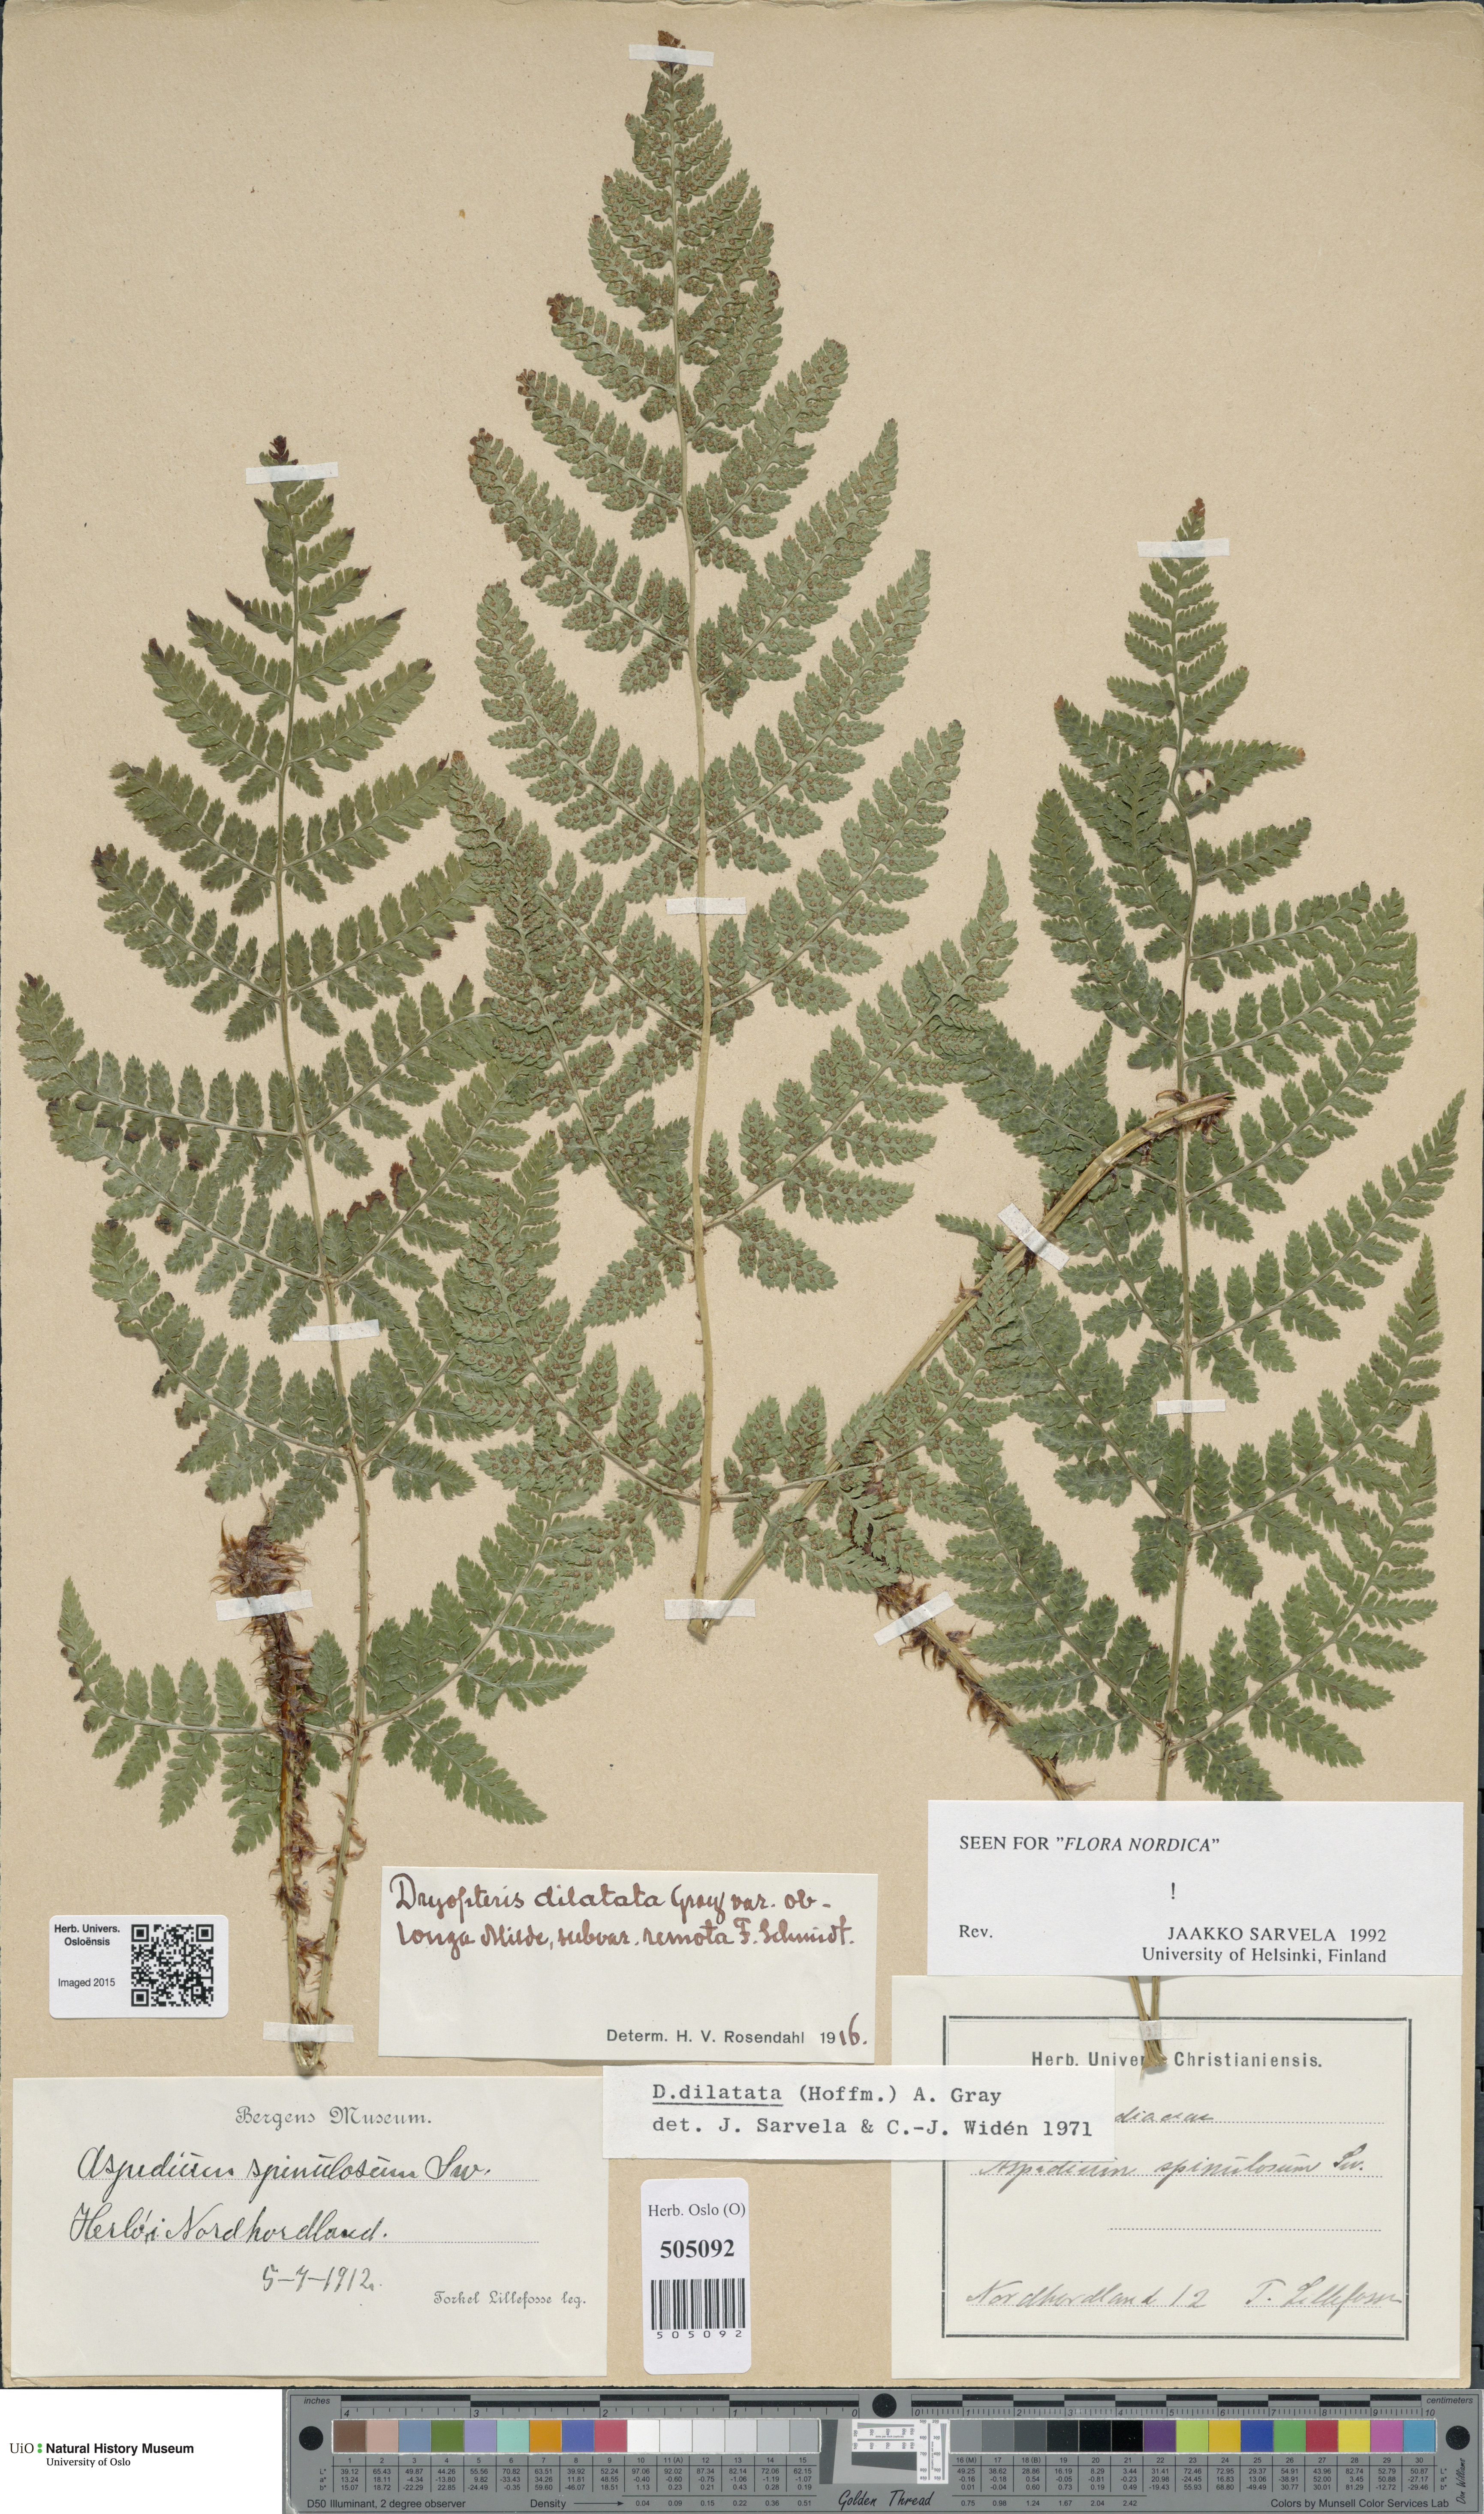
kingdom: Plantae
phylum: Tracheophyta
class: Polypodiopsida
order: Polypodiales
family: Dryopteridaceae
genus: Dryopteris
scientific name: Dryopteris dilatata
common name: Broad buckler-fern
